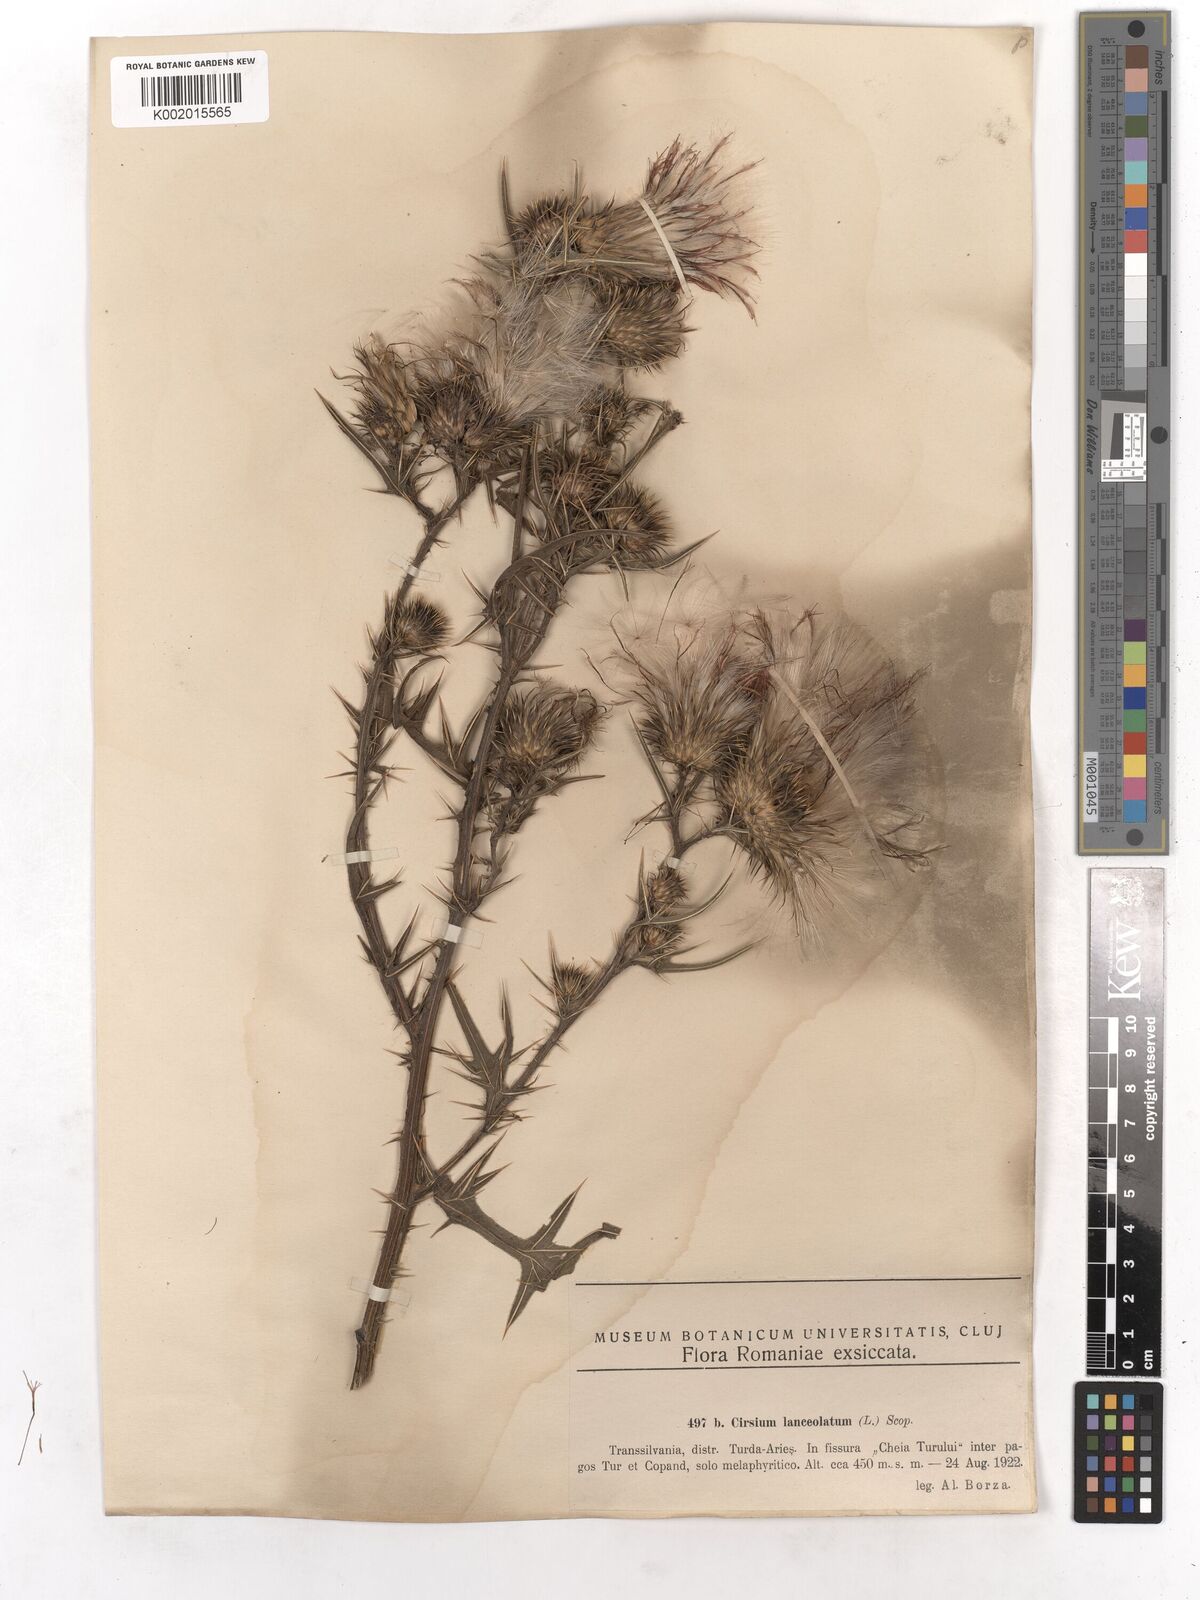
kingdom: Plantae
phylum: Tracheophyta
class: Magnoliopsida
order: Asterales
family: Asteraceae
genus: Cirsium
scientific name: Cirsium vulgare
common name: Bull thistle
